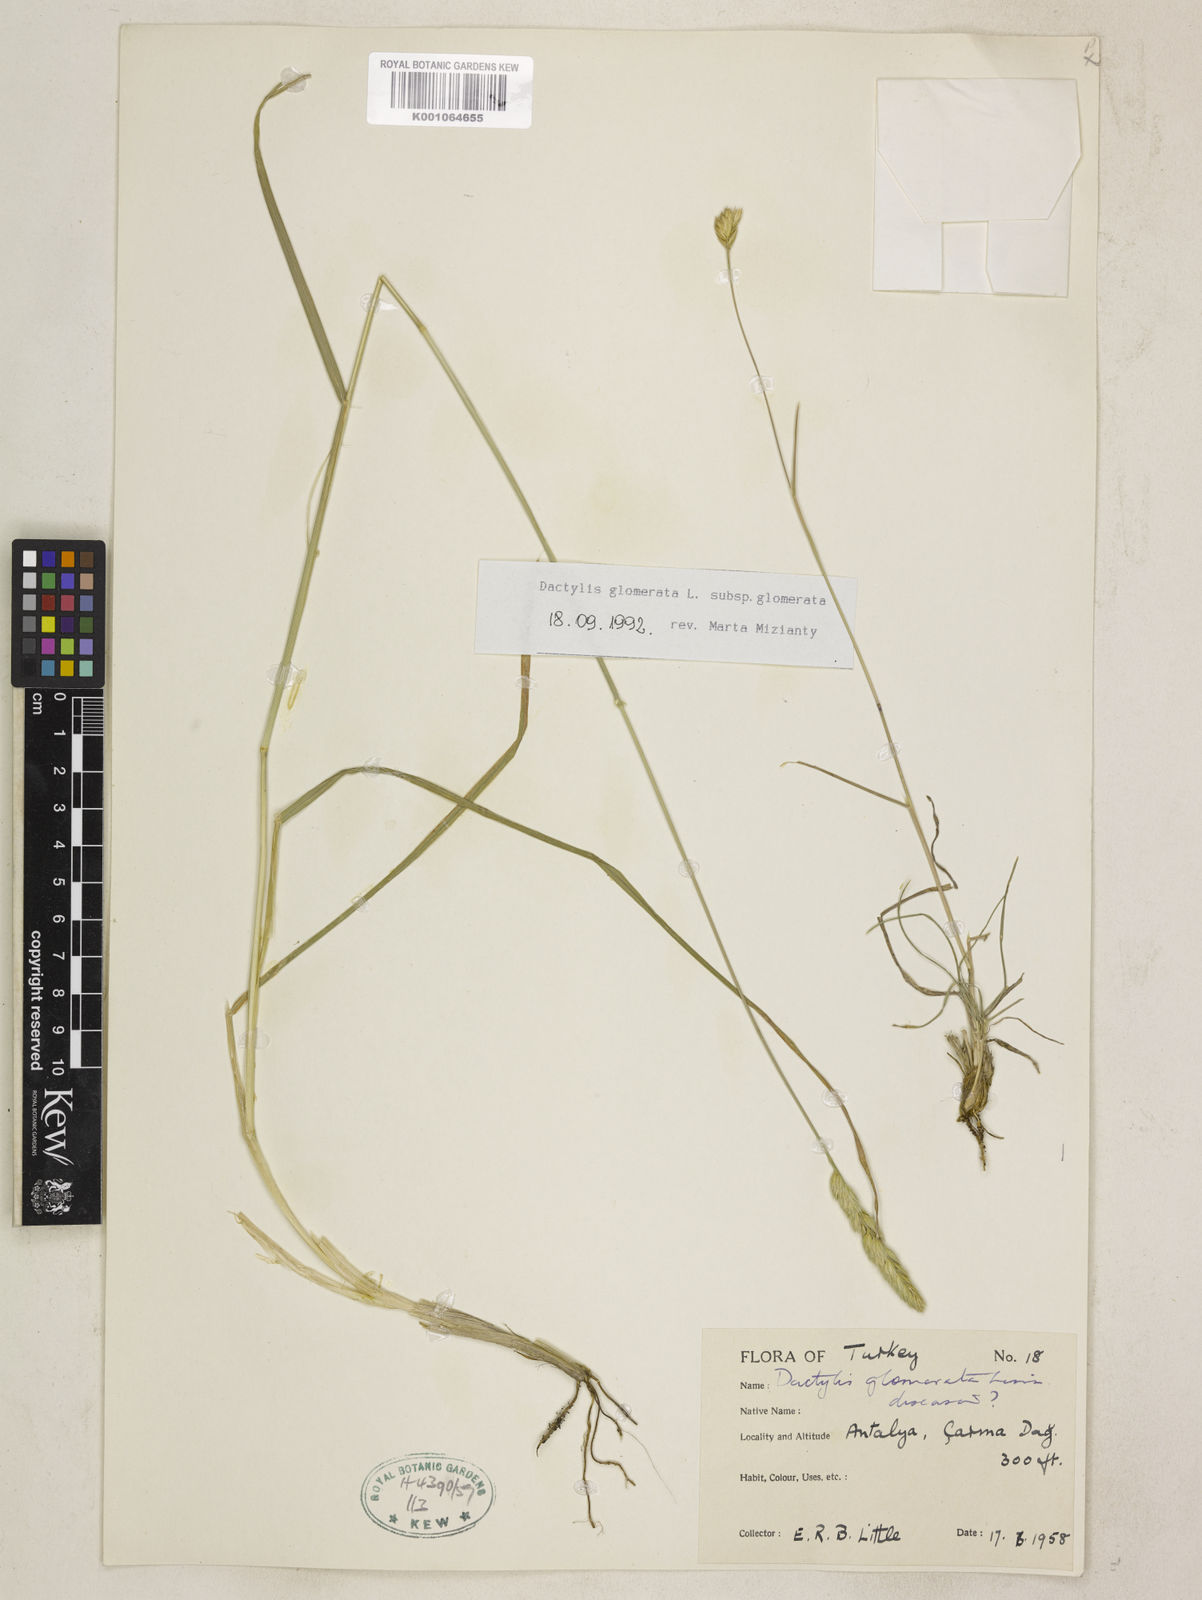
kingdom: Plantae
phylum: Tracheophyta
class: Liliopsida
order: Poales
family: Poaceae
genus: Dactylis
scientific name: Dactylis glomerata
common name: Orchardgrass
